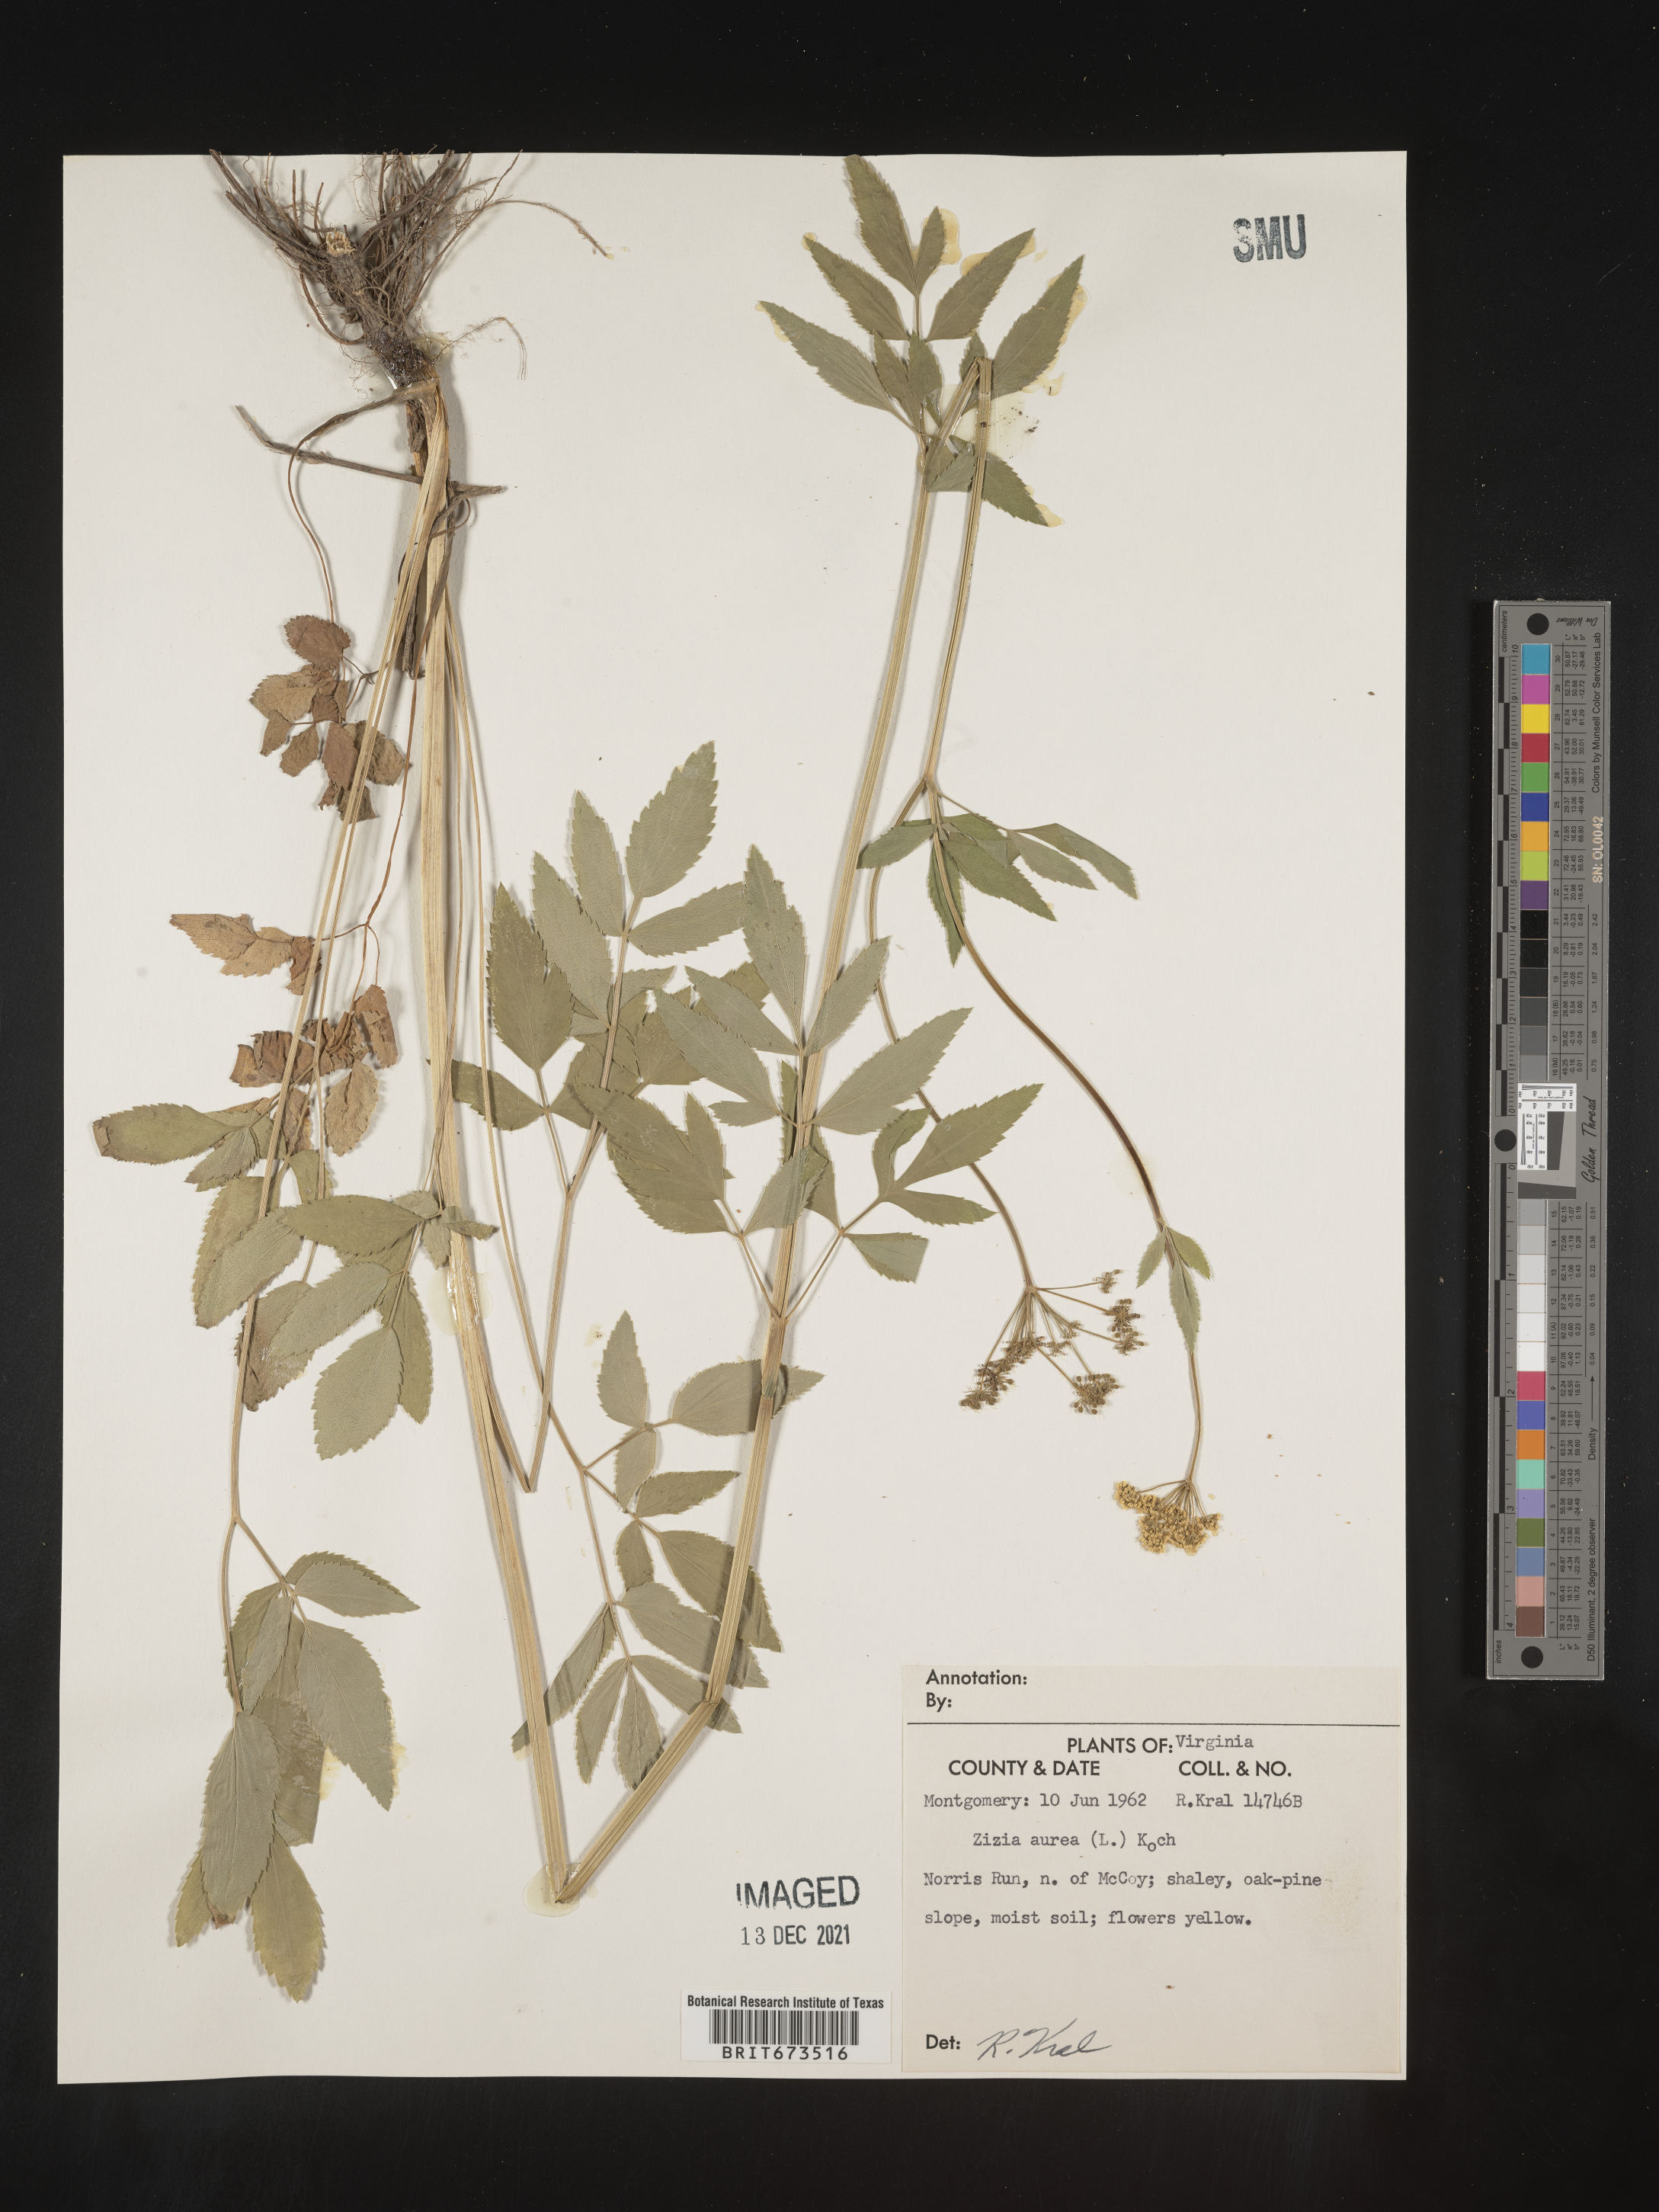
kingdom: Plantae
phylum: Tracheophyta
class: Magnoliopsida
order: Apiales
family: Apiaceae
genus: Zizia
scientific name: Zizia aurea
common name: Golden alexanders
